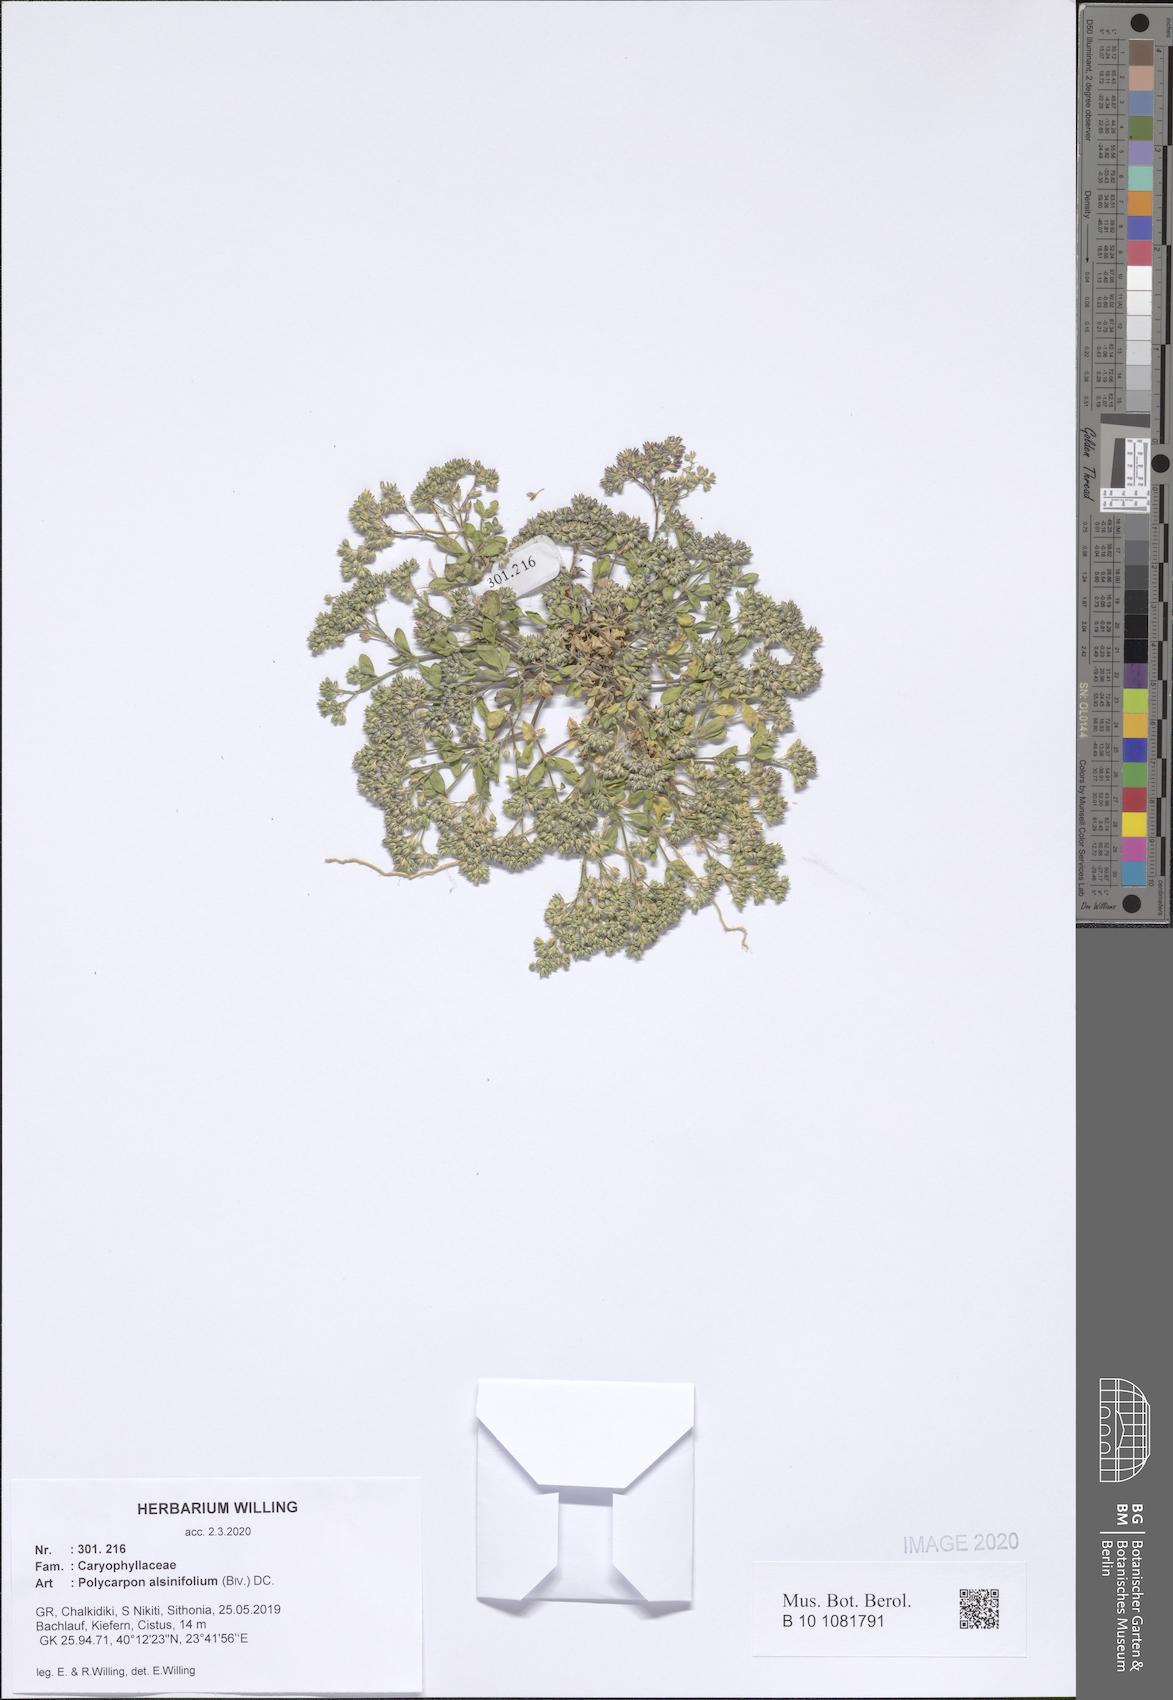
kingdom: Plantae
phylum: Tracheophyta
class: Magnoliopsida
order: Caryophyllales
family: Caryophyllaceae
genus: Polycarpon
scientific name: Polycarpon alsinifolium
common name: Fourleaf manyseed
